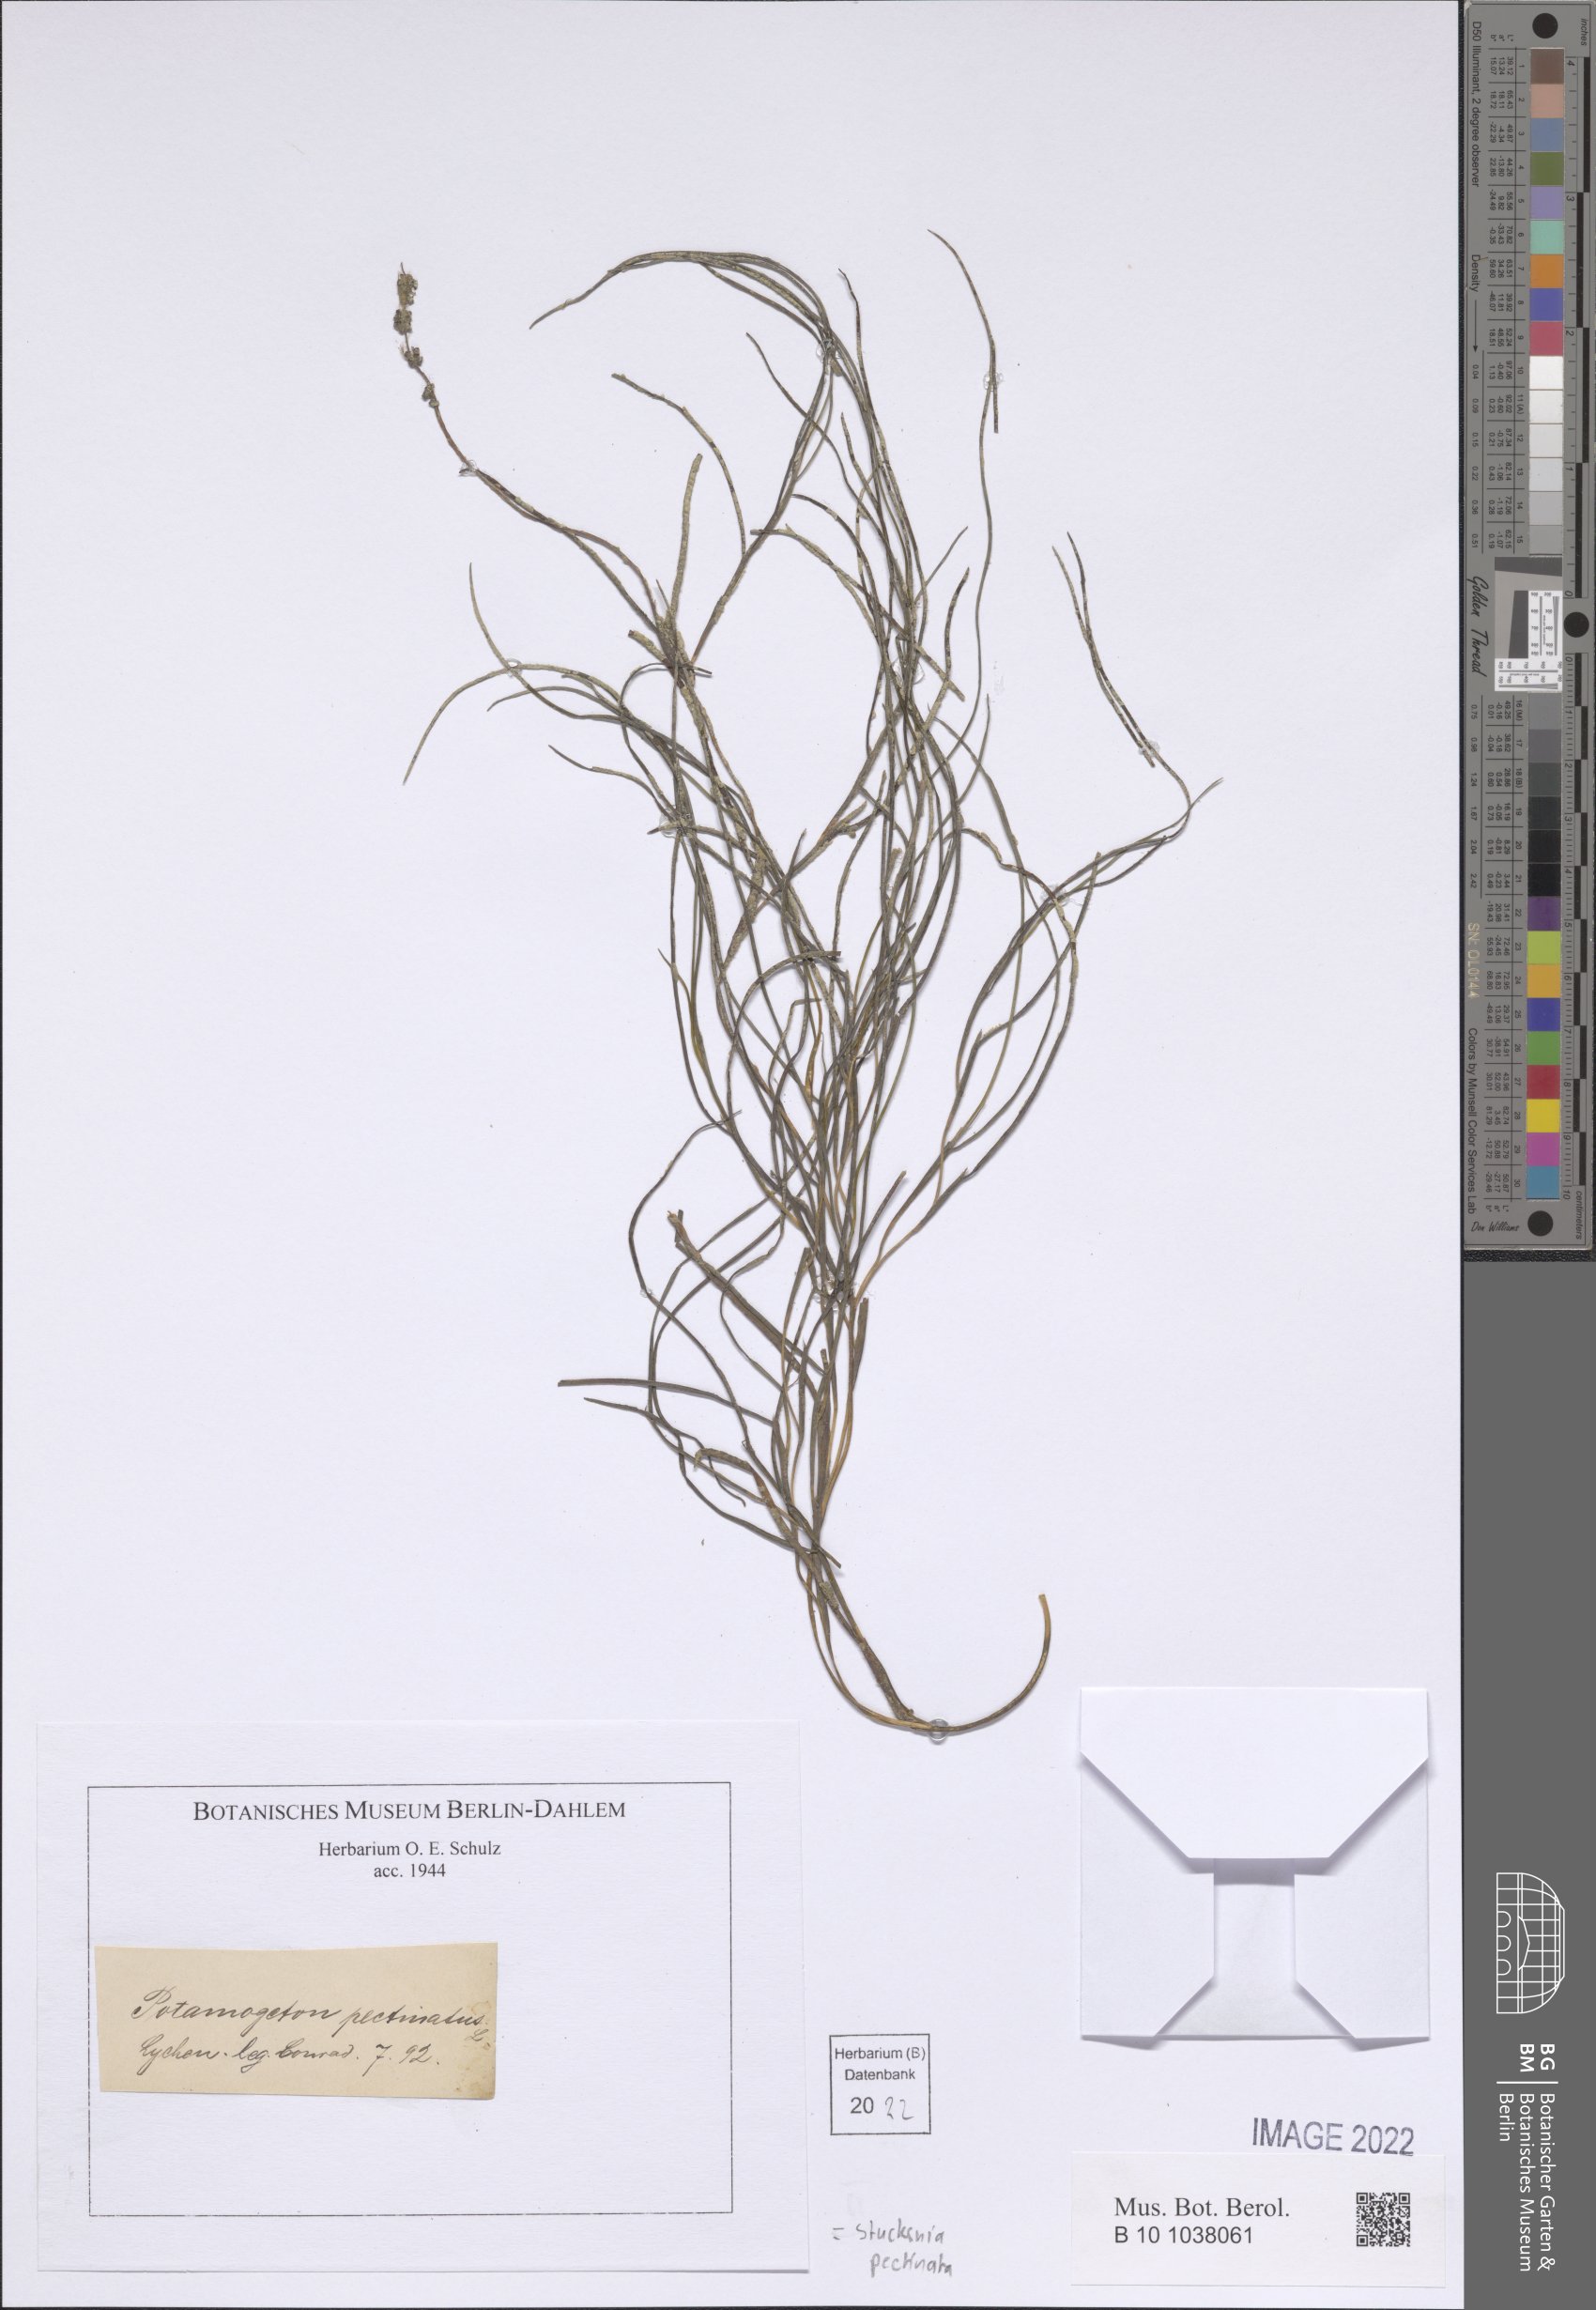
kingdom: Plantae
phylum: Tracheophyta
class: Liliopsida
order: Alismatales
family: Potamogetonaceae
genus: Stuckenia
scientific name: Stuckenia pectinata
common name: Sago pondweed
